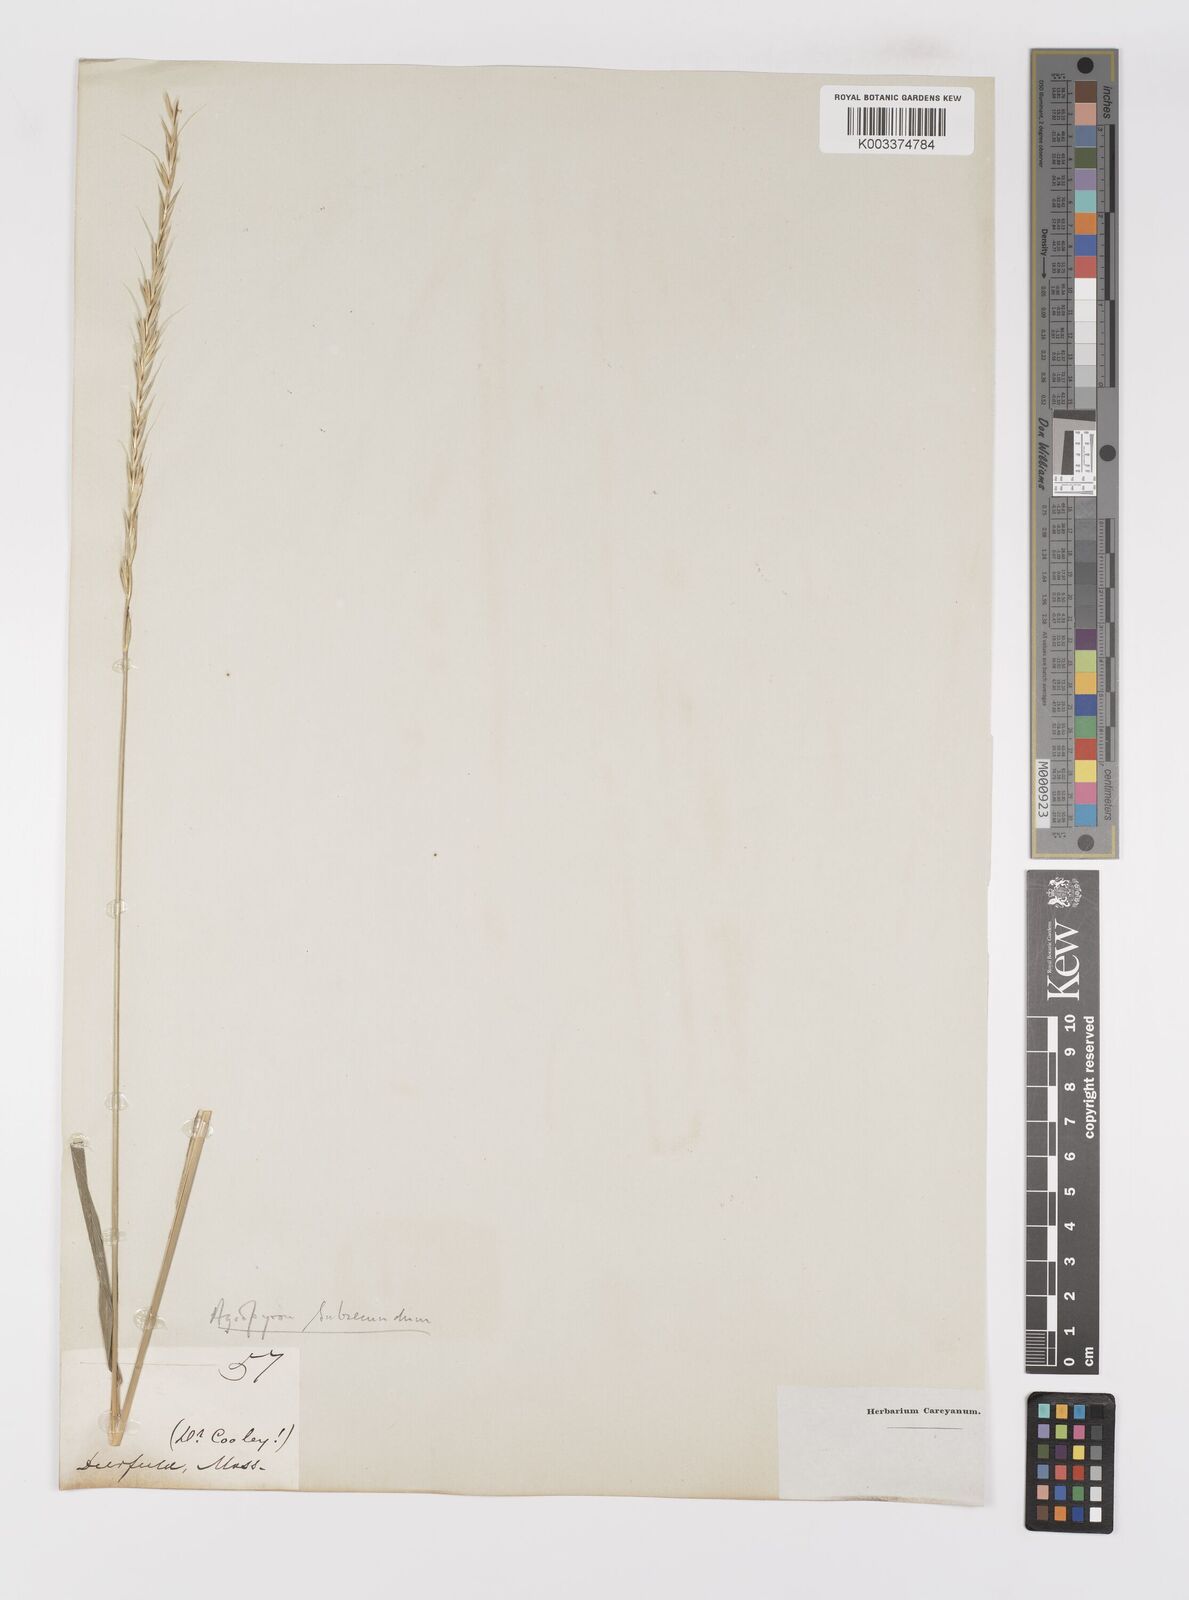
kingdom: Plantae
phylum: Tracheophyta
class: Liliopsida
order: Poales
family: Poaceae
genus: Elymus
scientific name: Elymus violaceus
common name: Arctic wheatgrass
